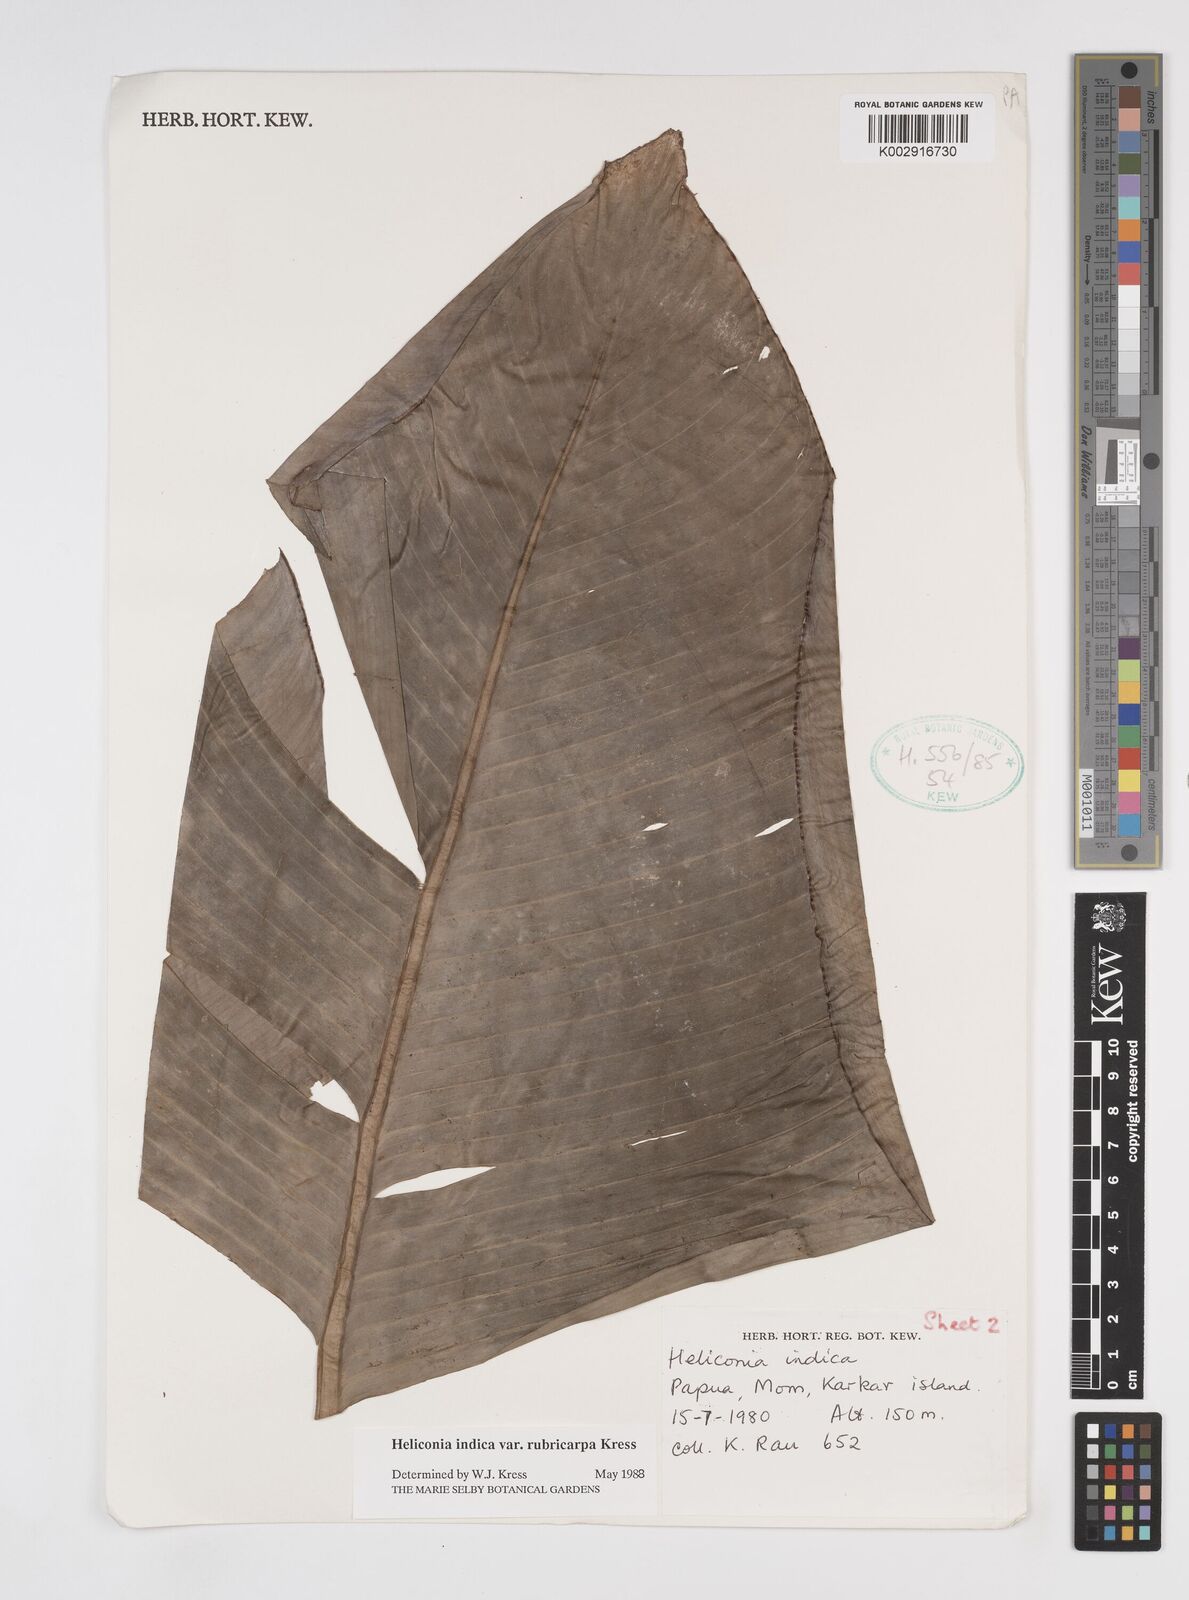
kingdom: Plantae
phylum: Tracheophyta
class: Liliopsida
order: Zingiberales
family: Heliconiaceae
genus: Heliconia
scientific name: Heliconia indica
